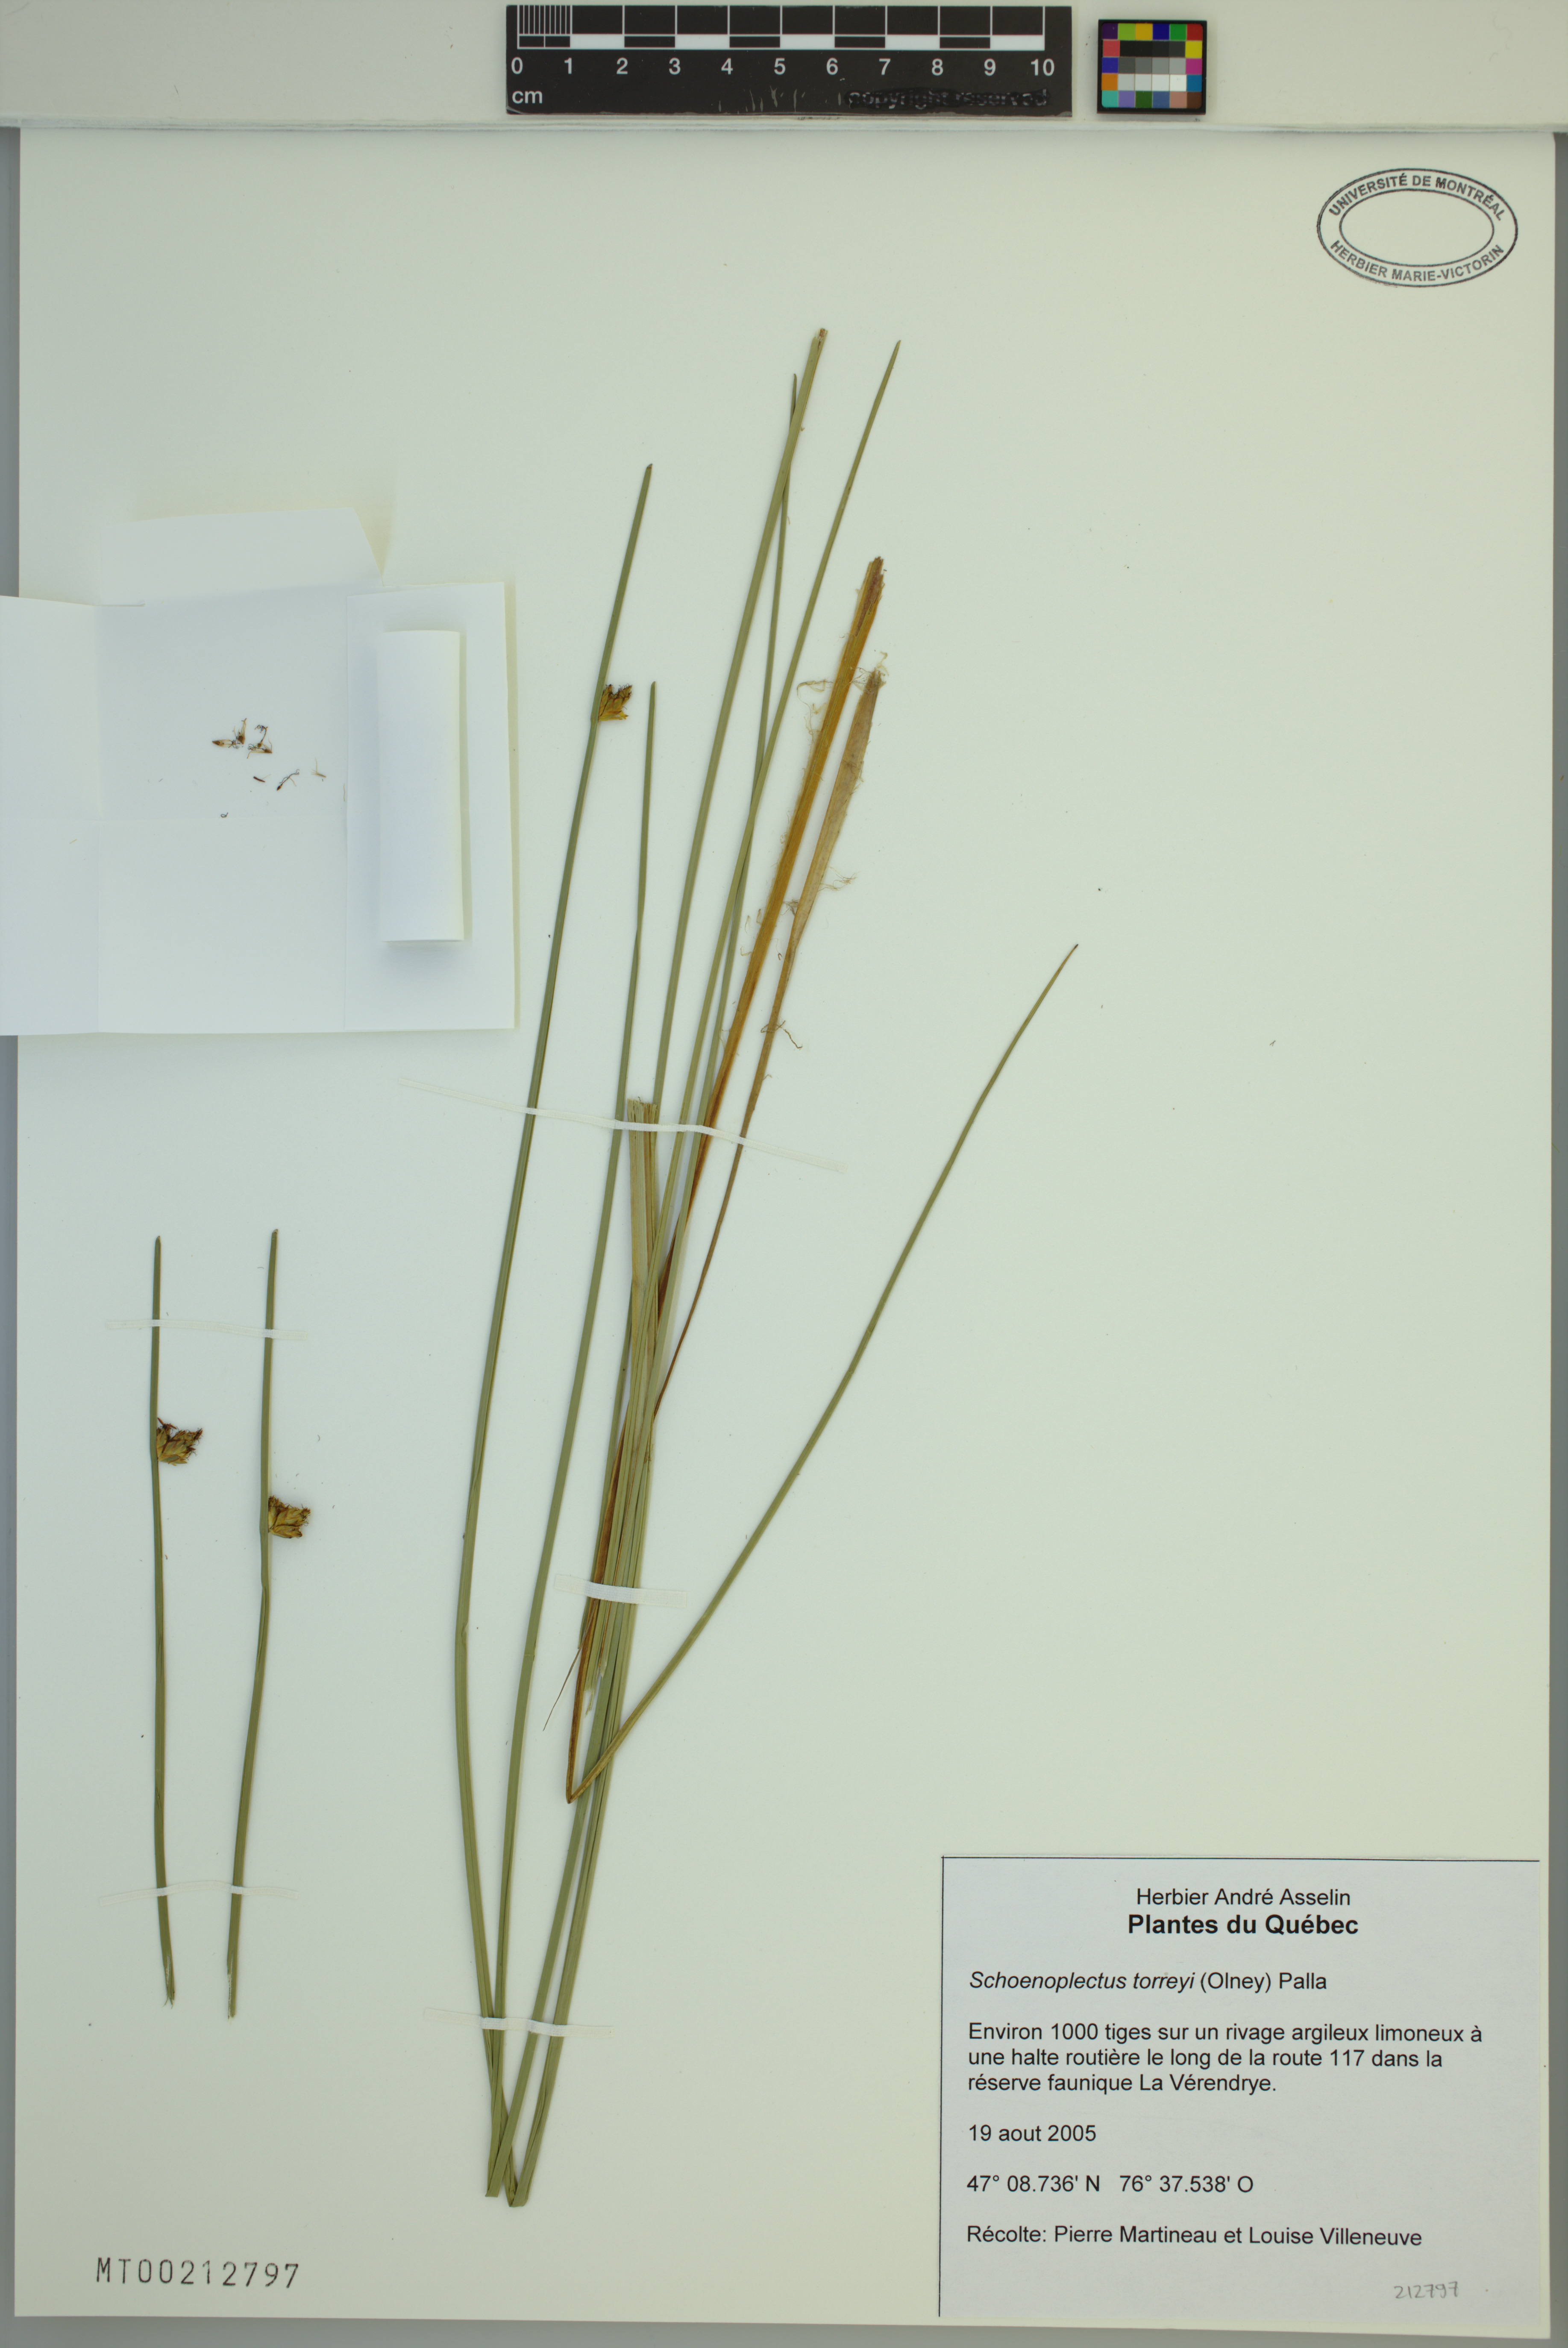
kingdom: Plantae
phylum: Tracheophyta
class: Liliopsida
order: Poales
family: Cyperaceae
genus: Schoenoplectus
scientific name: Schoenoplectus torreyi
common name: Torrey's bulrush
